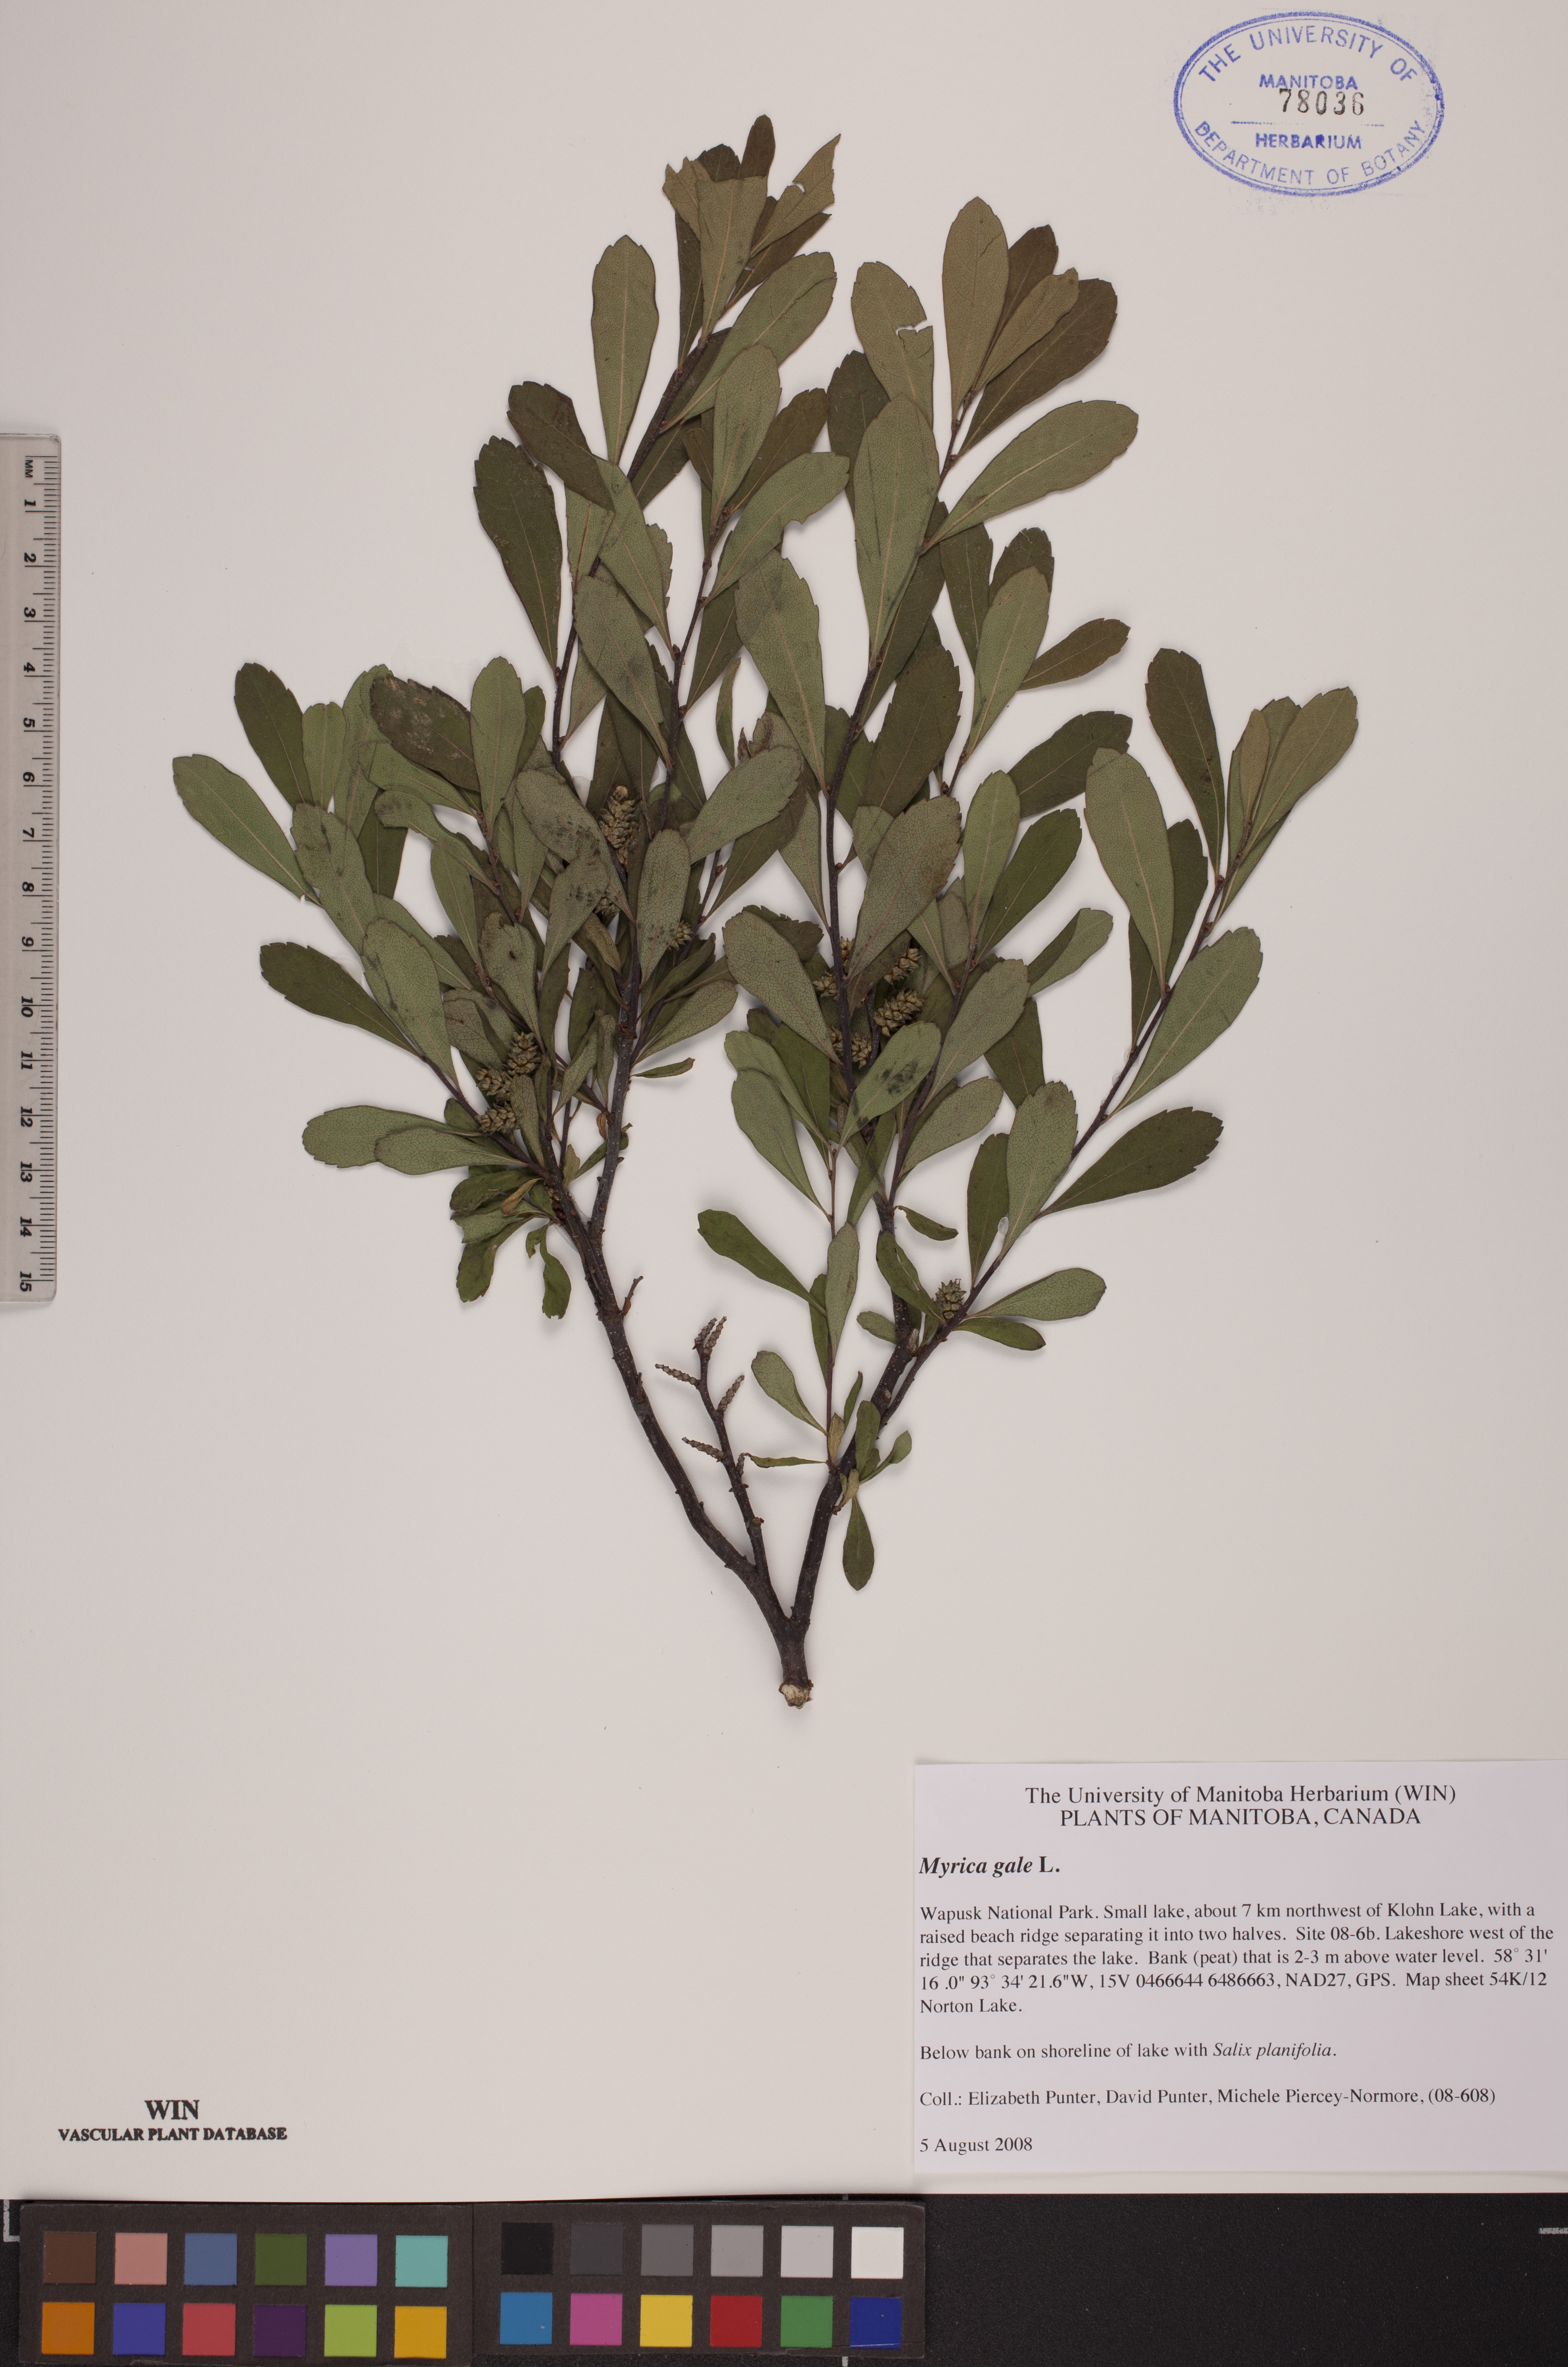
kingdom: Plantae
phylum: Tracheophyta
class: Magnoliopsida
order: Fagales
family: Myricaceae
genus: Myrica
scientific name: Myrica gale
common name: Sweet gale
